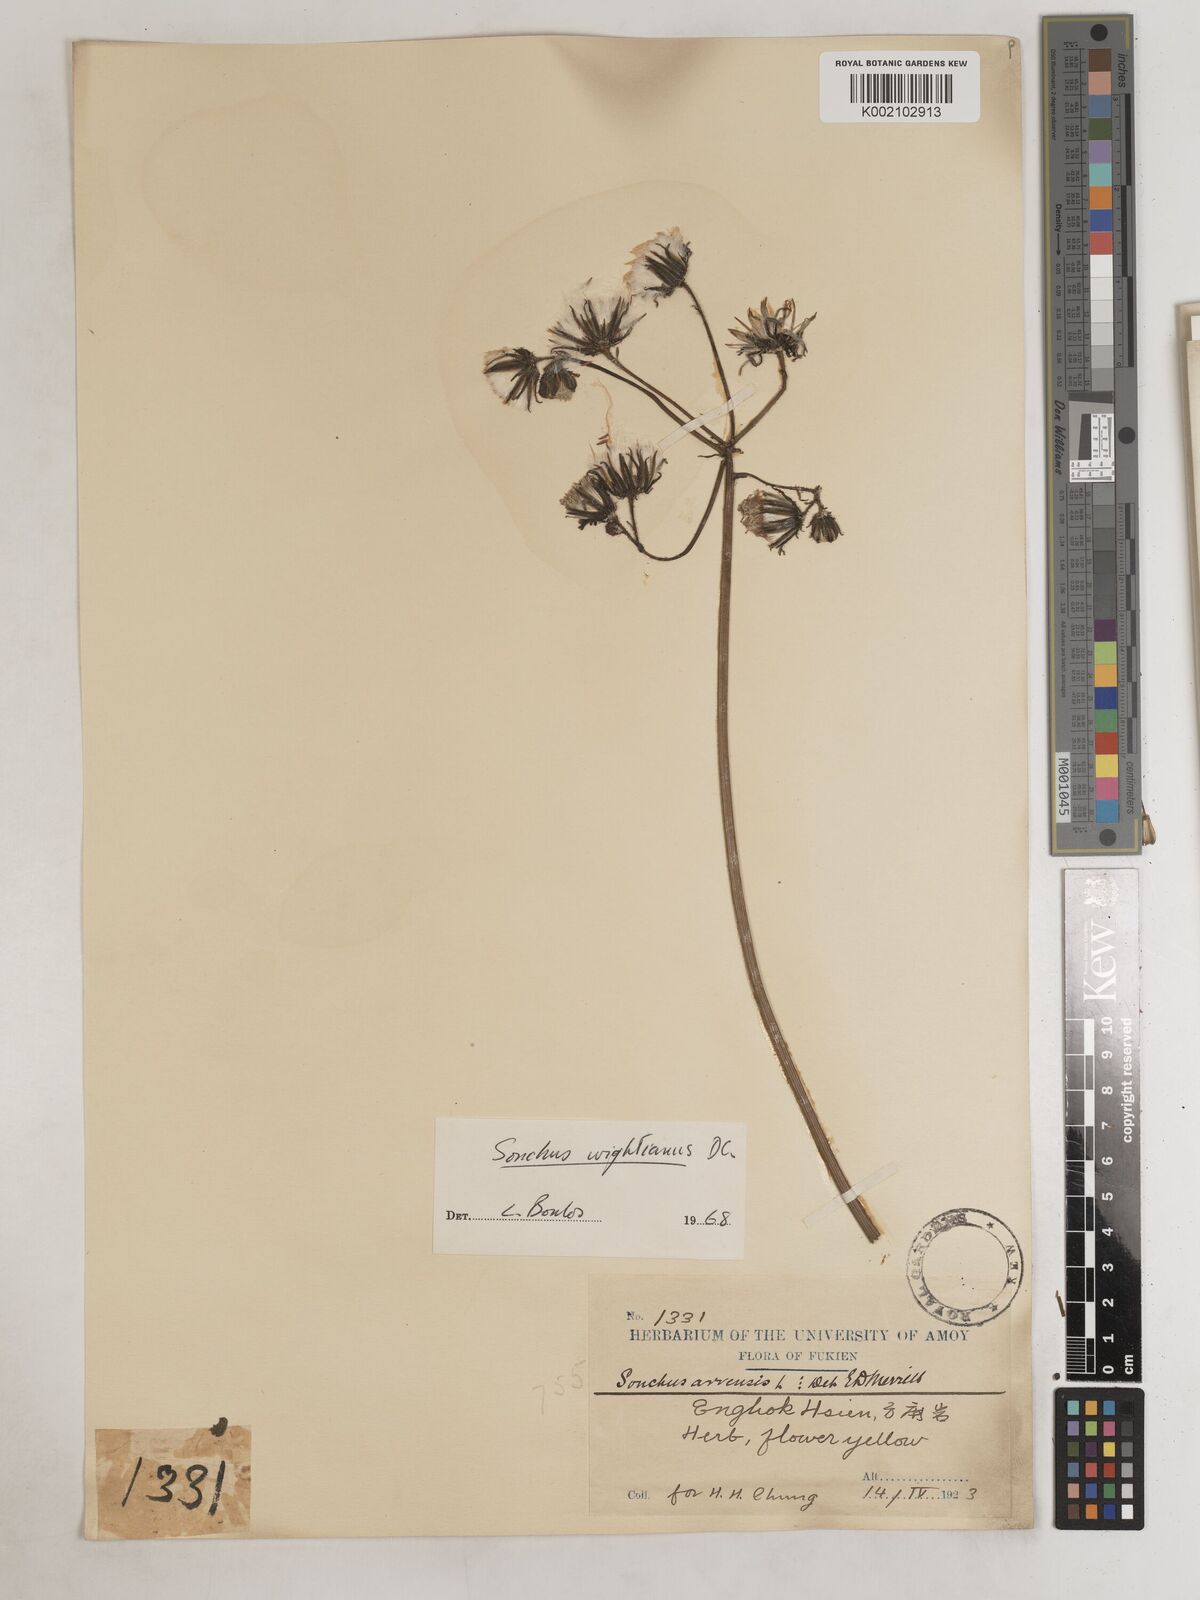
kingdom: Plantae
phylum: Tracheophyta
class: Magnoliopsida
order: Asterales
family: Asteraceae
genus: Sonchus
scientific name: Sonchus wightianus
